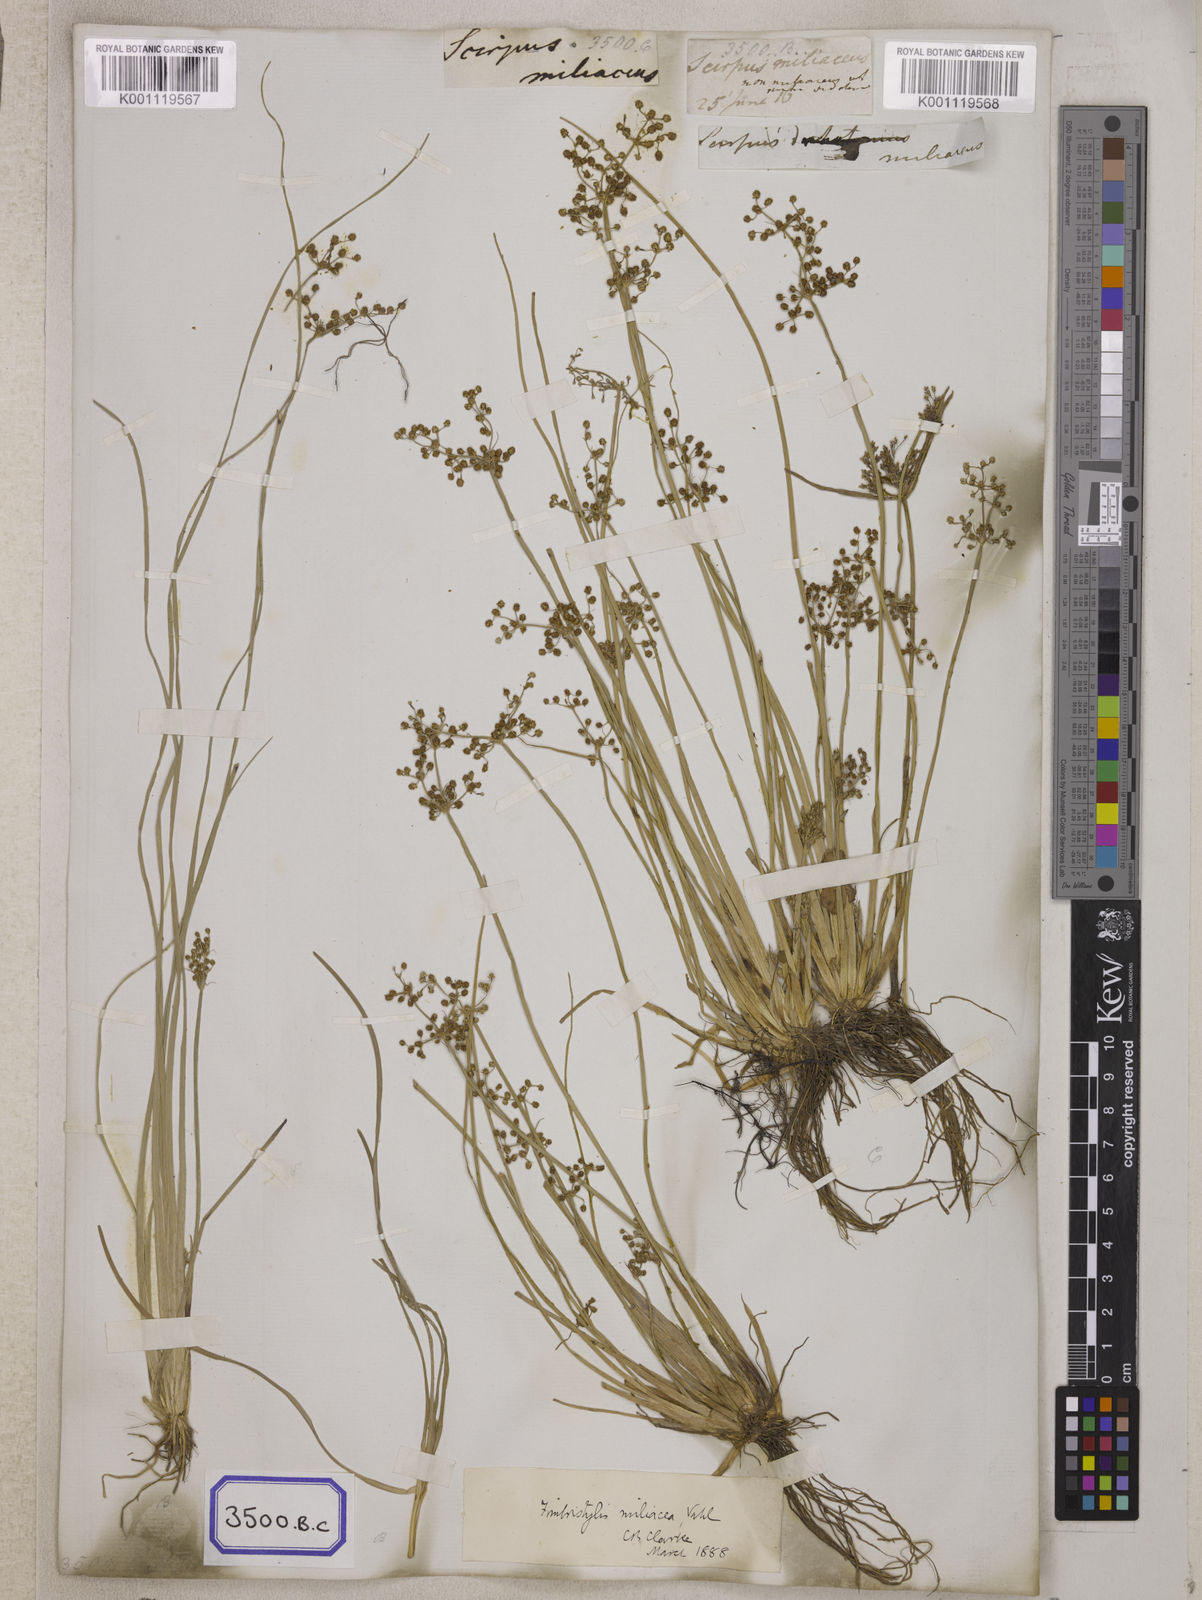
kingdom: Plantae
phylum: Tracheophyta
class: Liliopsida
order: Poales
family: Cyperaceae
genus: Fimbristylis
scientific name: Fimbristylis
